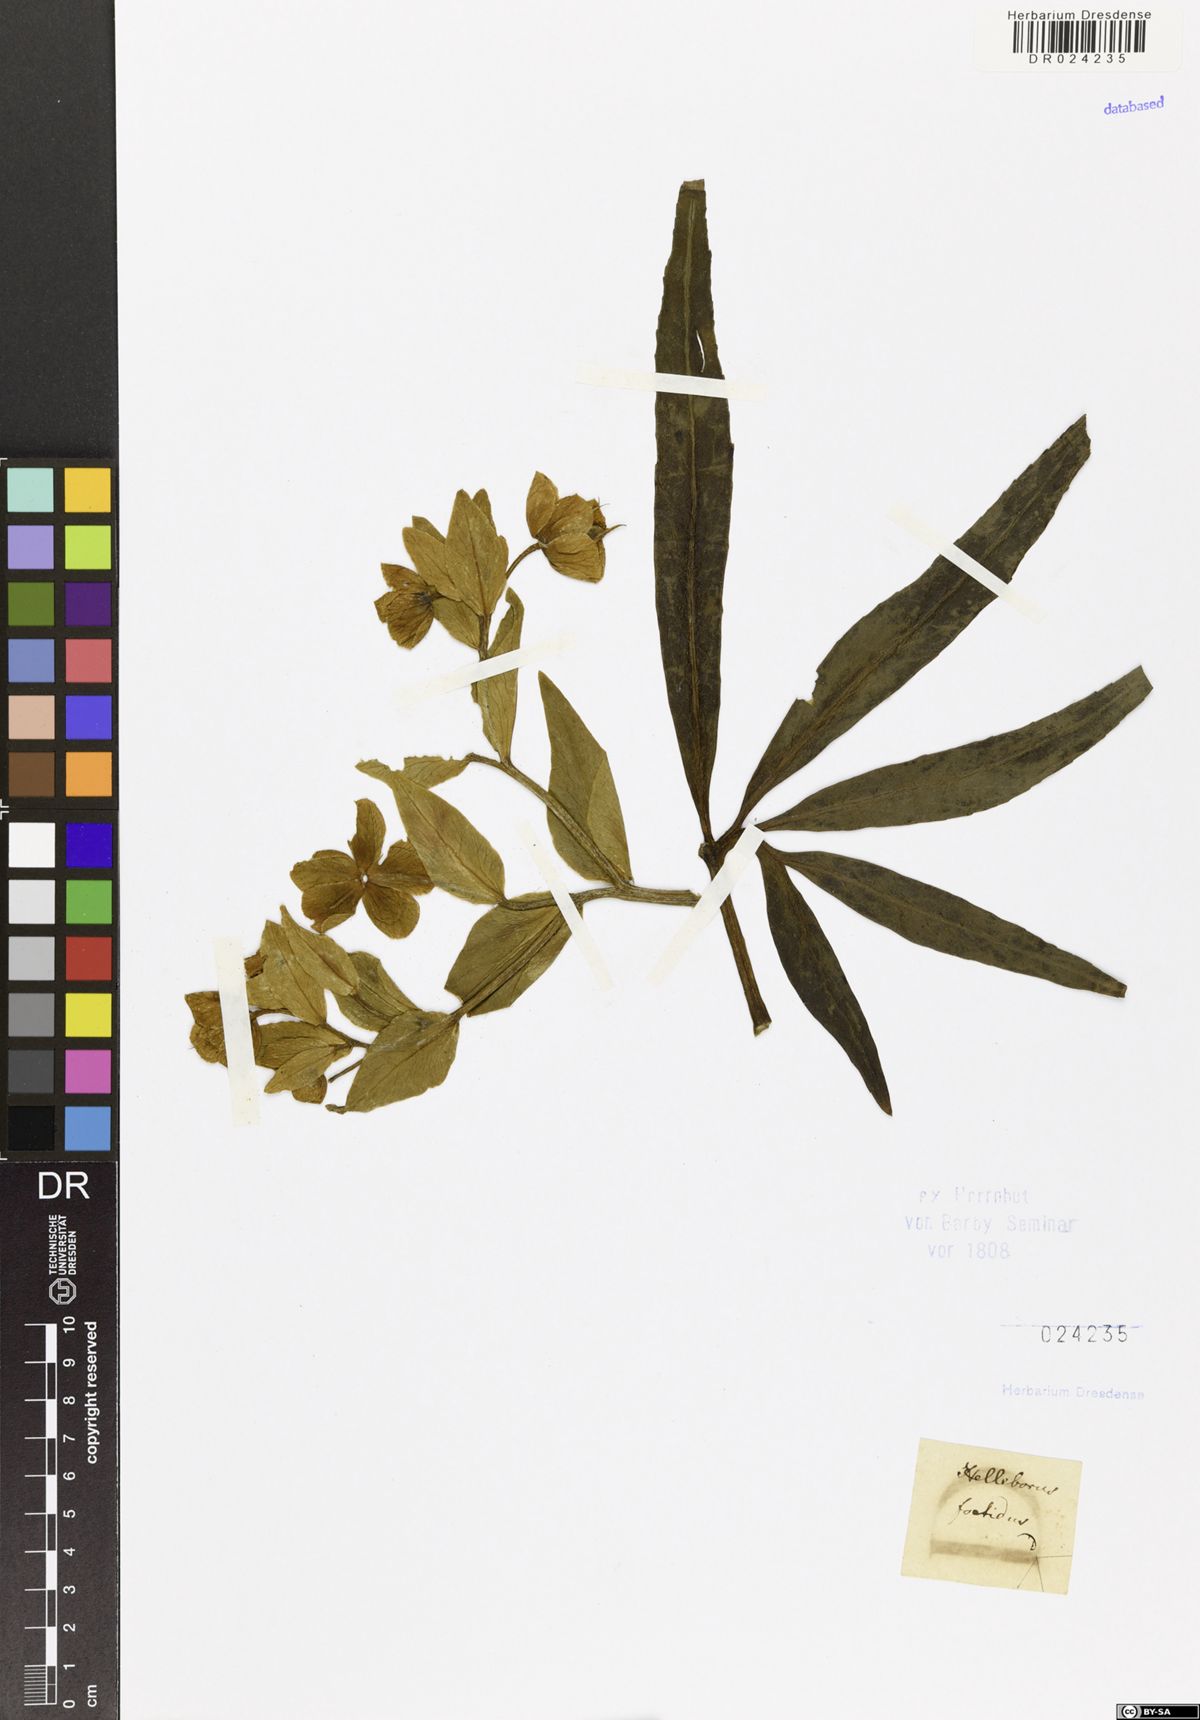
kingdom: Plantae
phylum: Tracheophyta
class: Magnoliopsida
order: Ranunculales
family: Ranunculaceae
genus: Helleborus
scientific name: Helleborus foetidus
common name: Stinking hellebore
